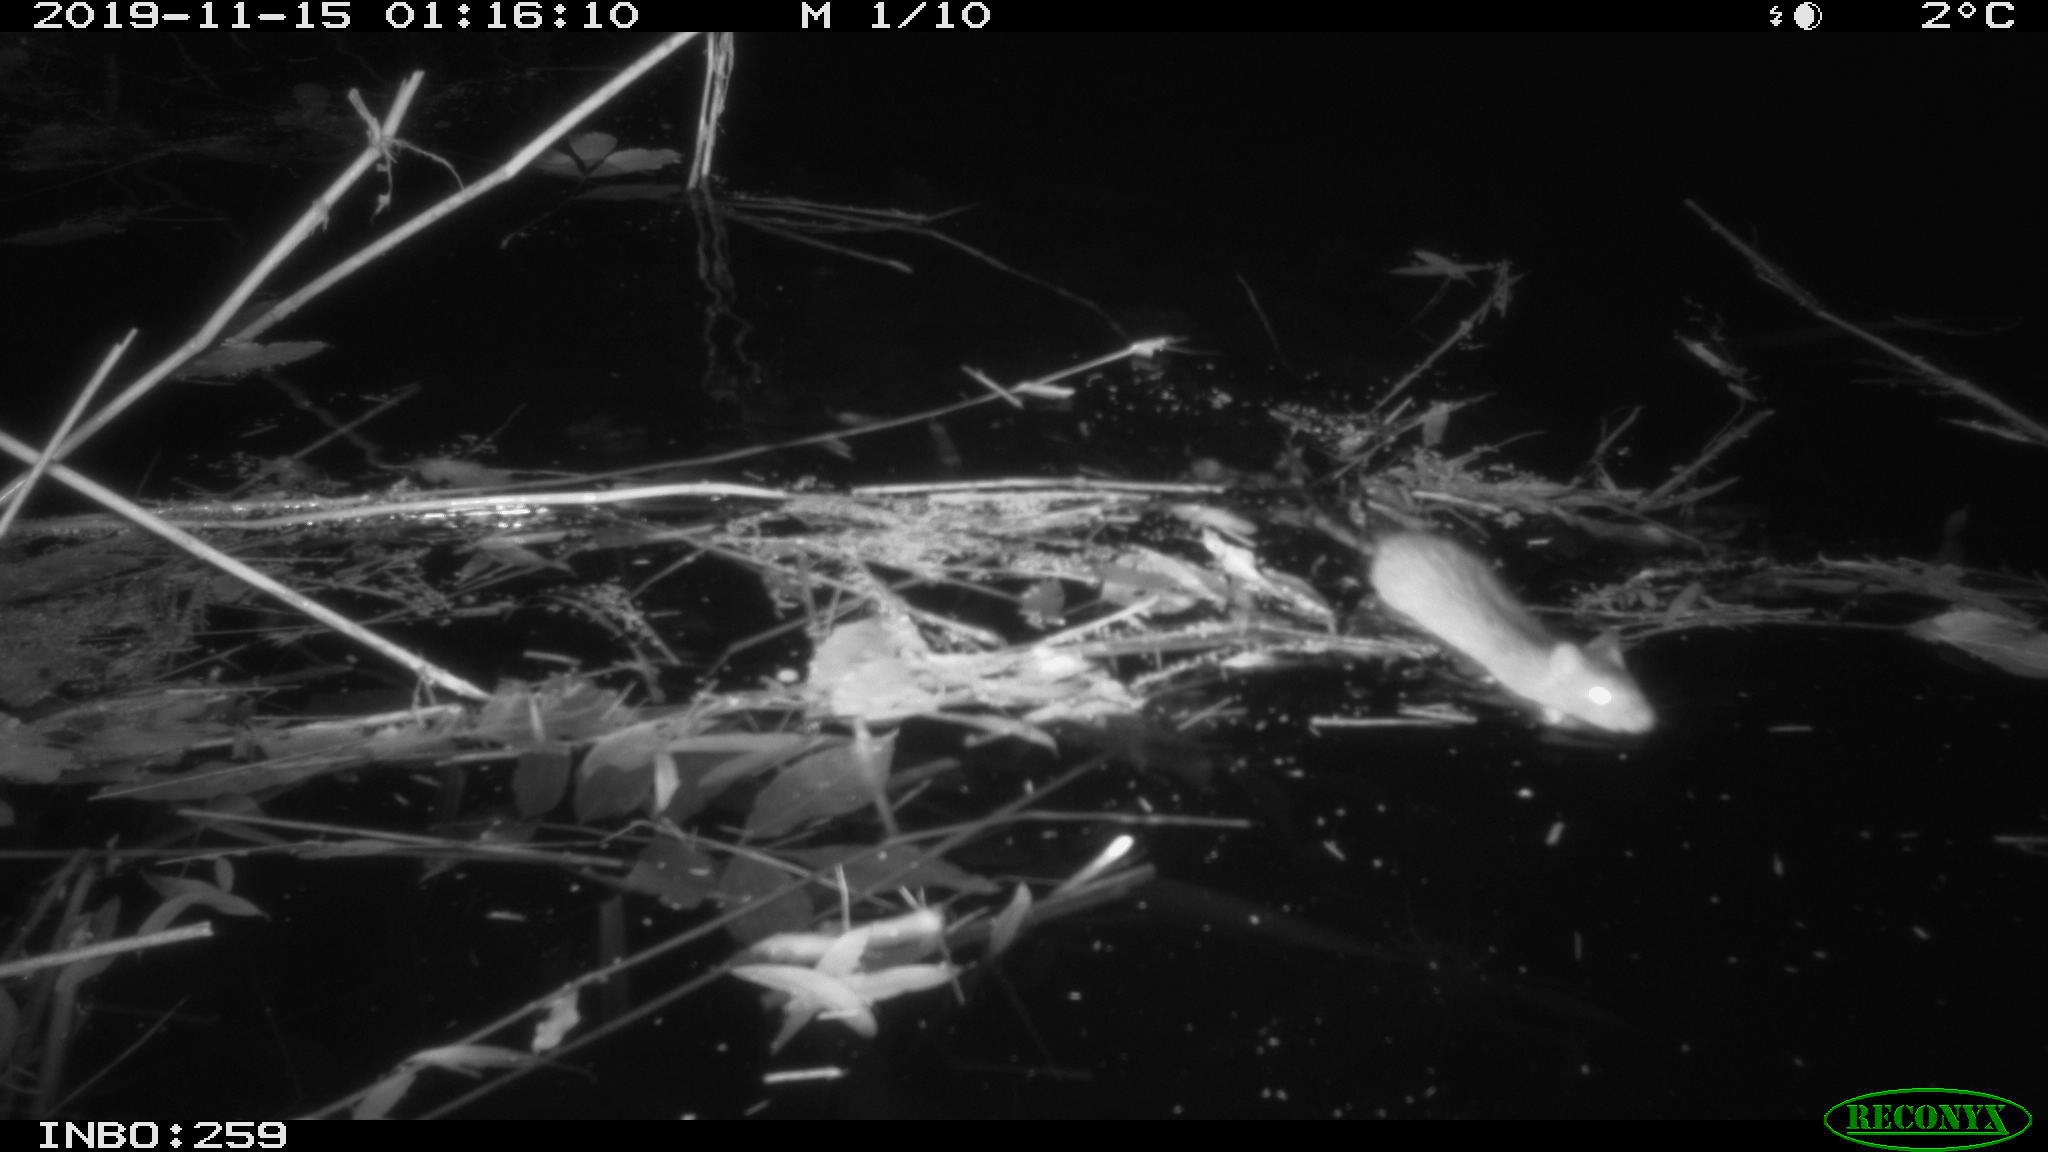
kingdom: Animalia
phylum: Chordata
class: Mammalia
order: Rodentia
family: Muridae
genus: Rattus
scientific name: Rattus norvegicus
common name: Brown rat
